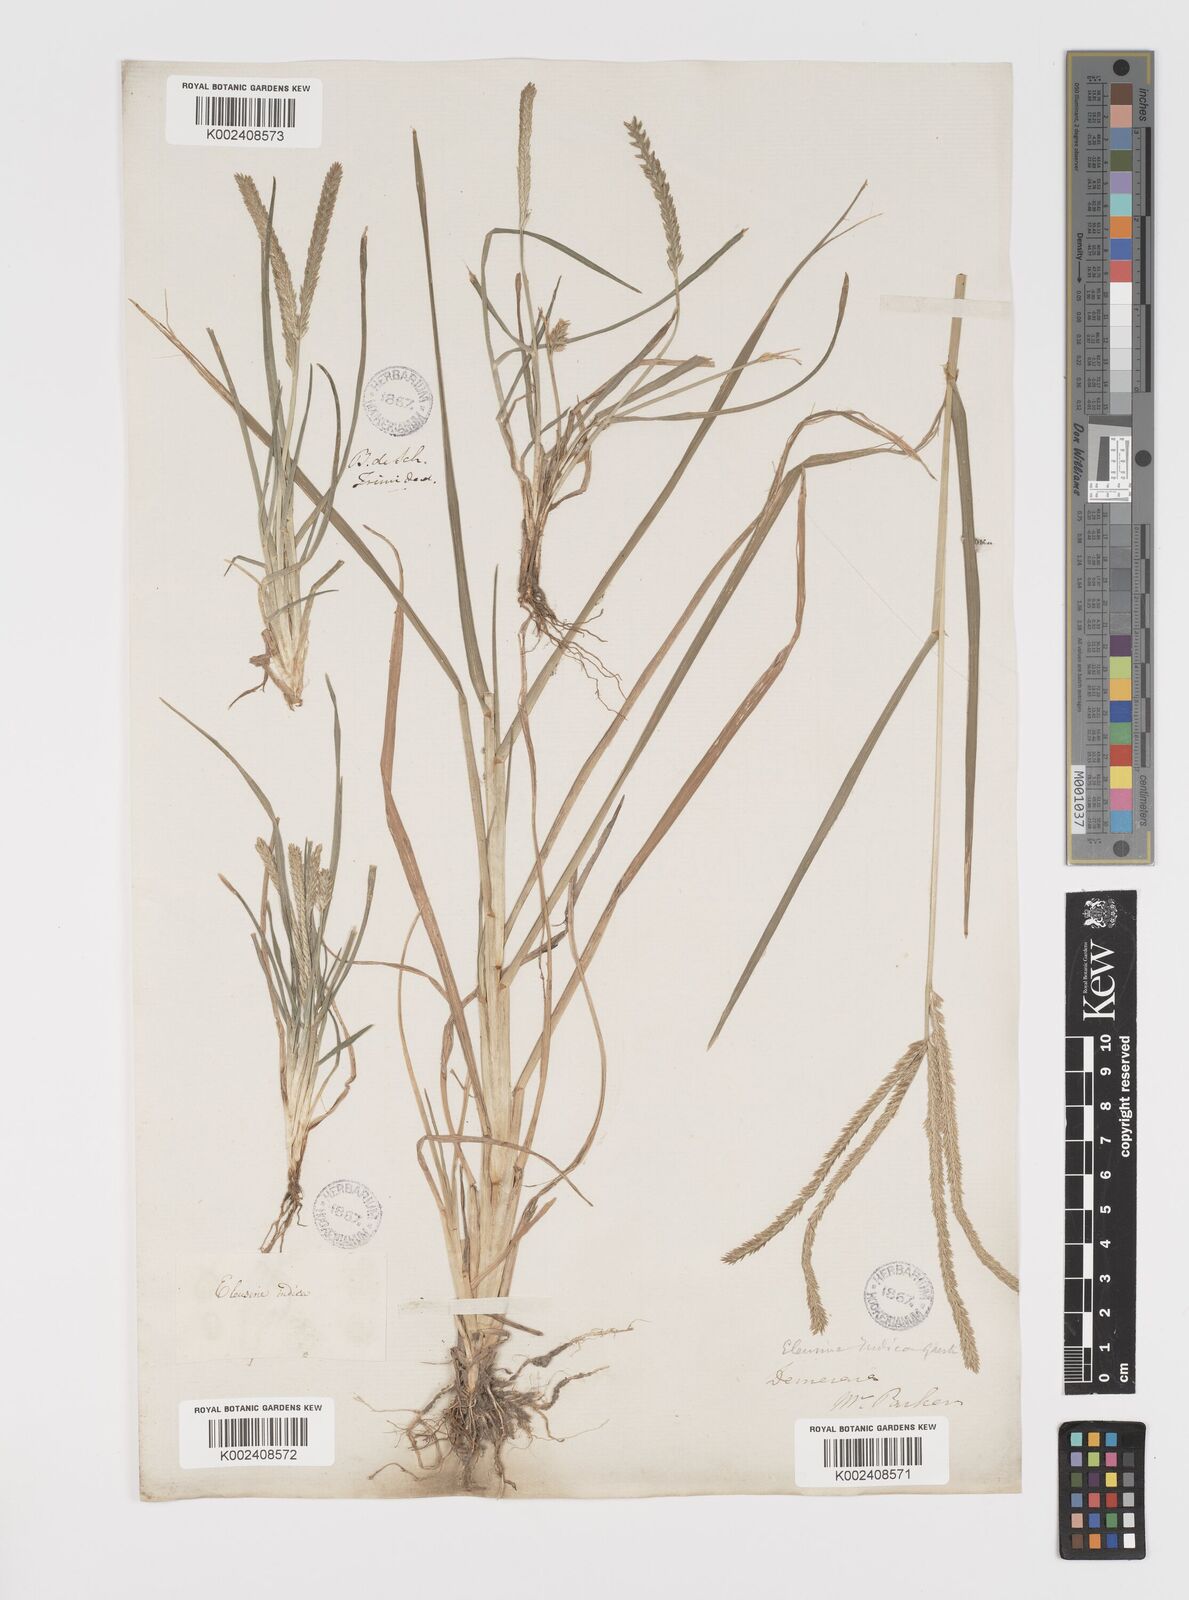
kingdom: Plantae
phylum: Tracheophyta
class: Liliopsida
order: Poales
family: Poaceae
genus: Eleusine
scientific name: Eleusine indica
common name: Yard-grass
